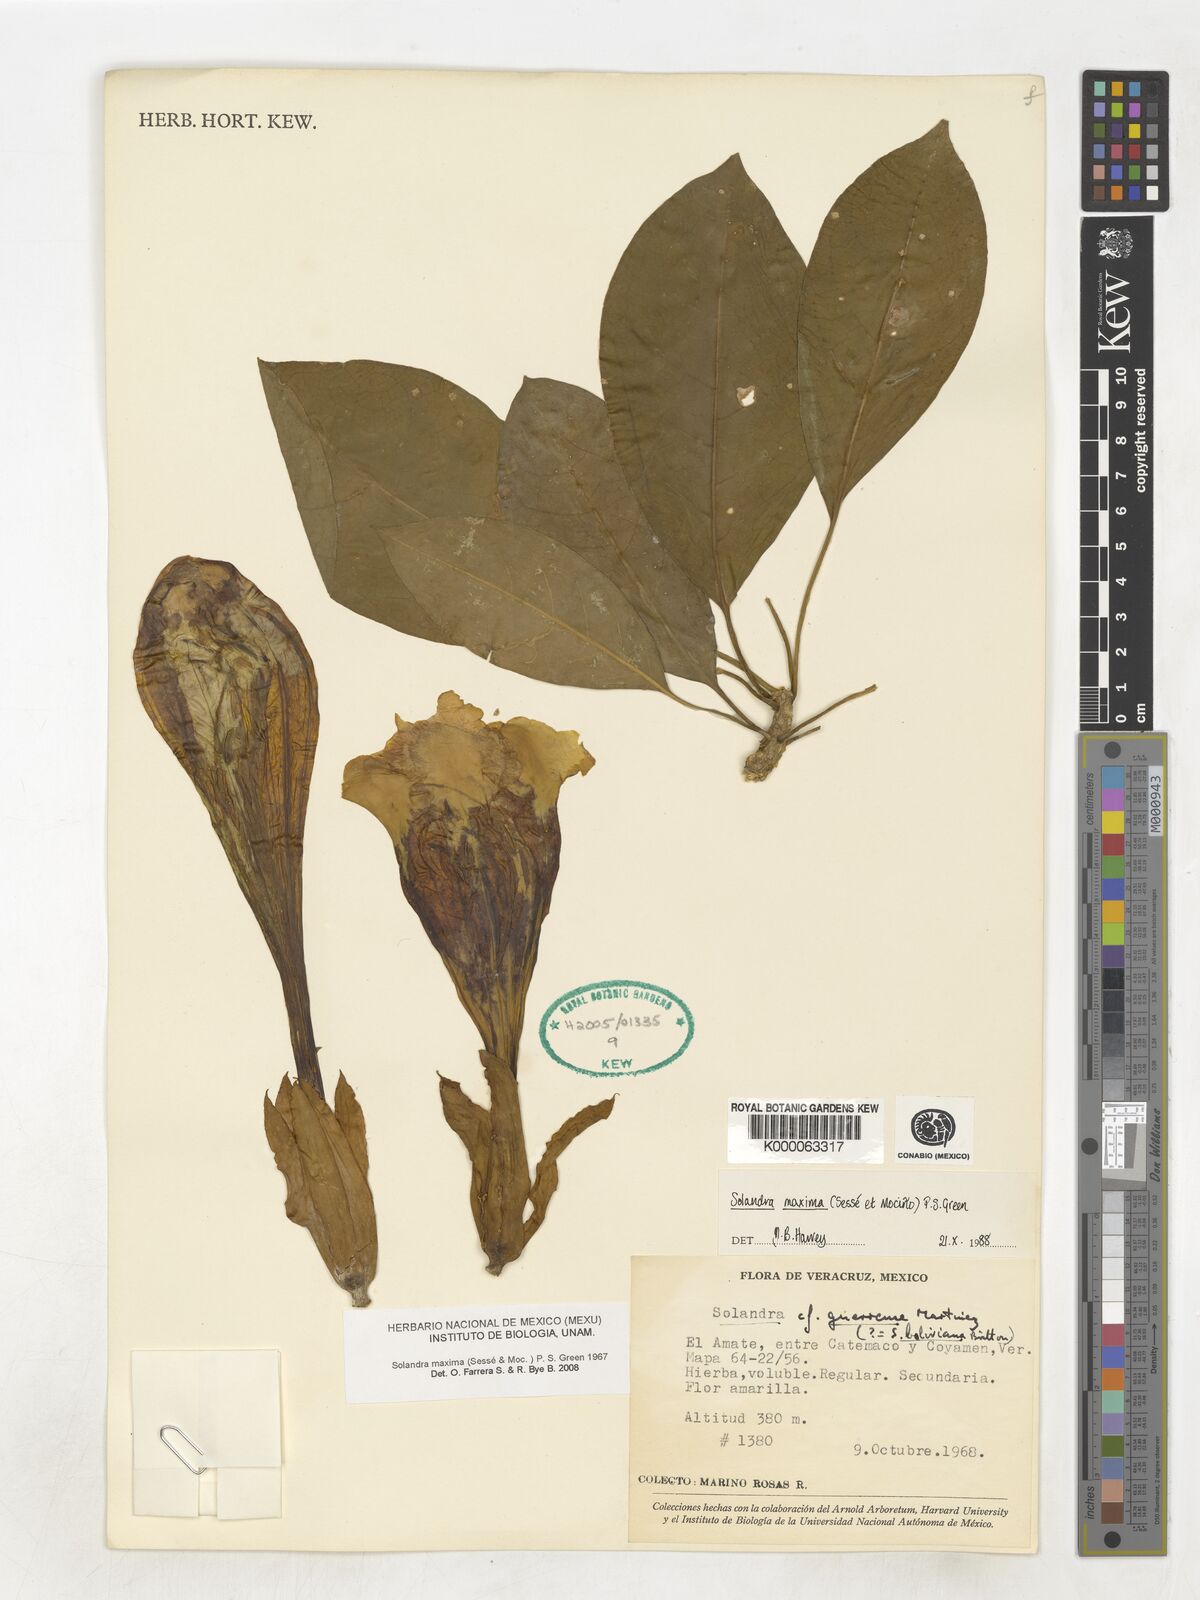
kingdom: Plantae
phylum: Tracheophyta
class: Magnoliopsida
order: Solanales
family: Solanaceae
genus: Solandra
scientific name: Solandra
